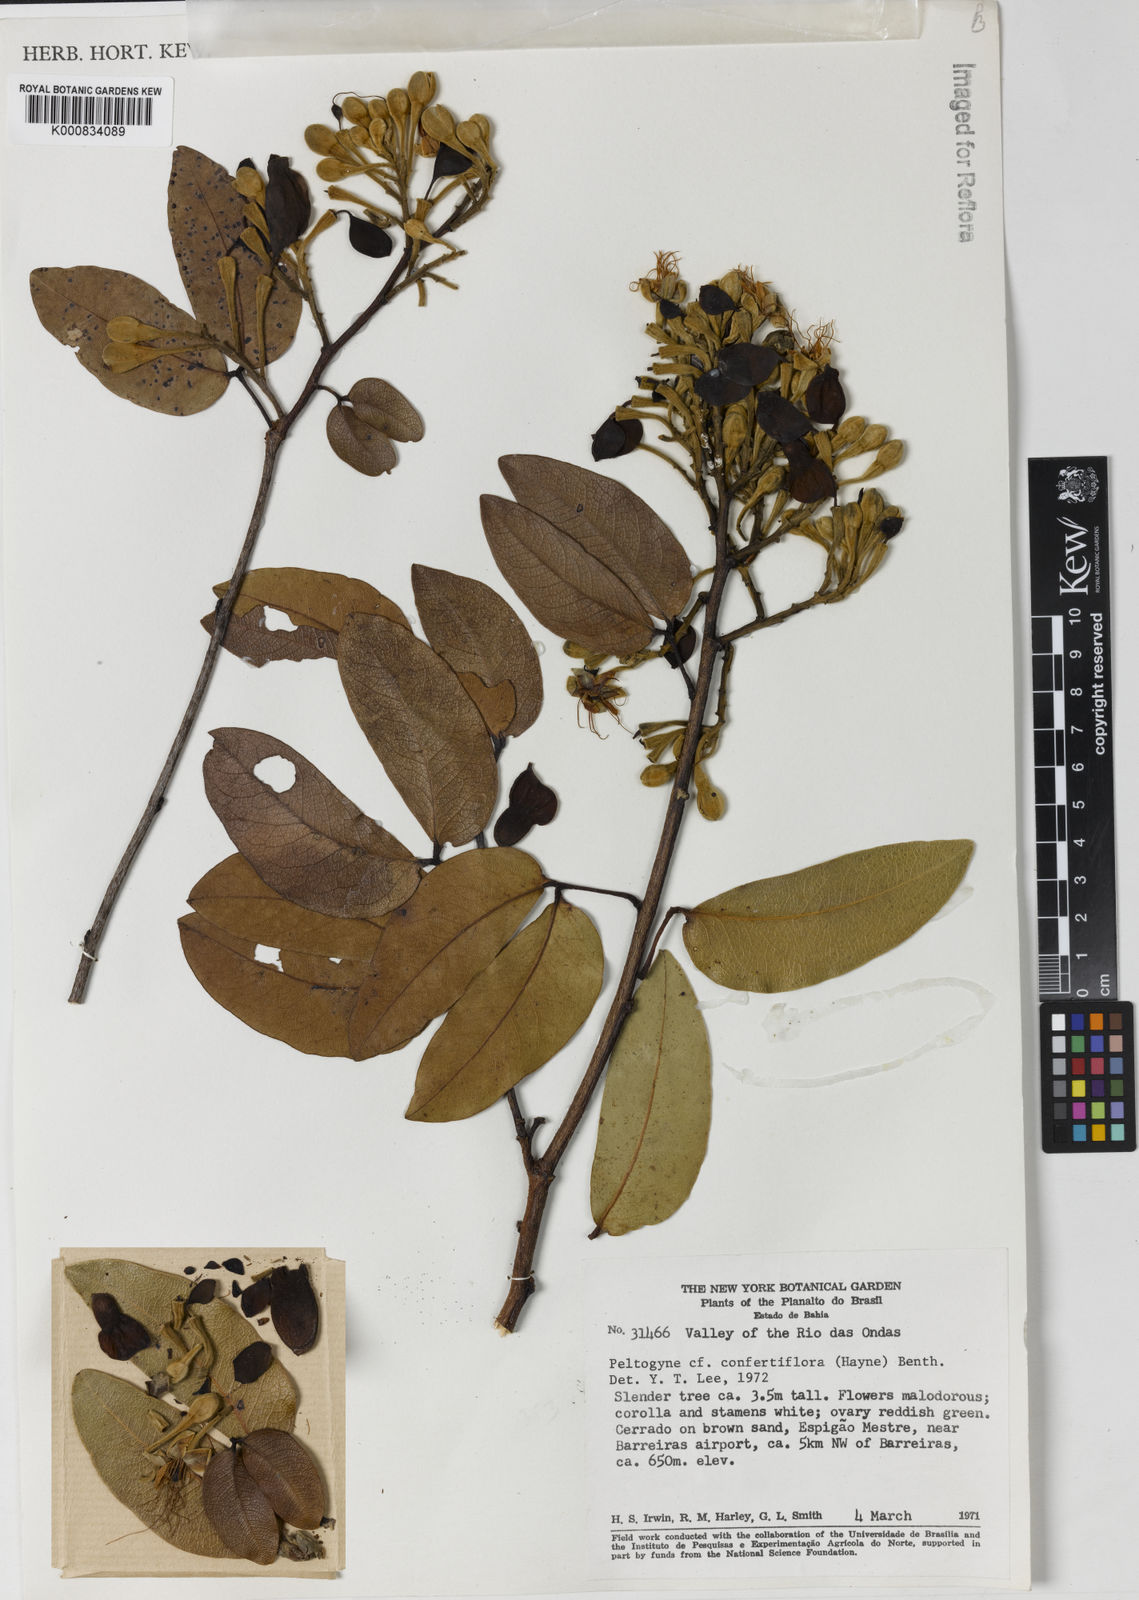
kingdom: Plantae
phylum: Tracheophyta
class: Magnoliopsida
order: Fabales
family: Fabaceae
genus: Peltogyne
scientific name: Peltogyne confertiflora
